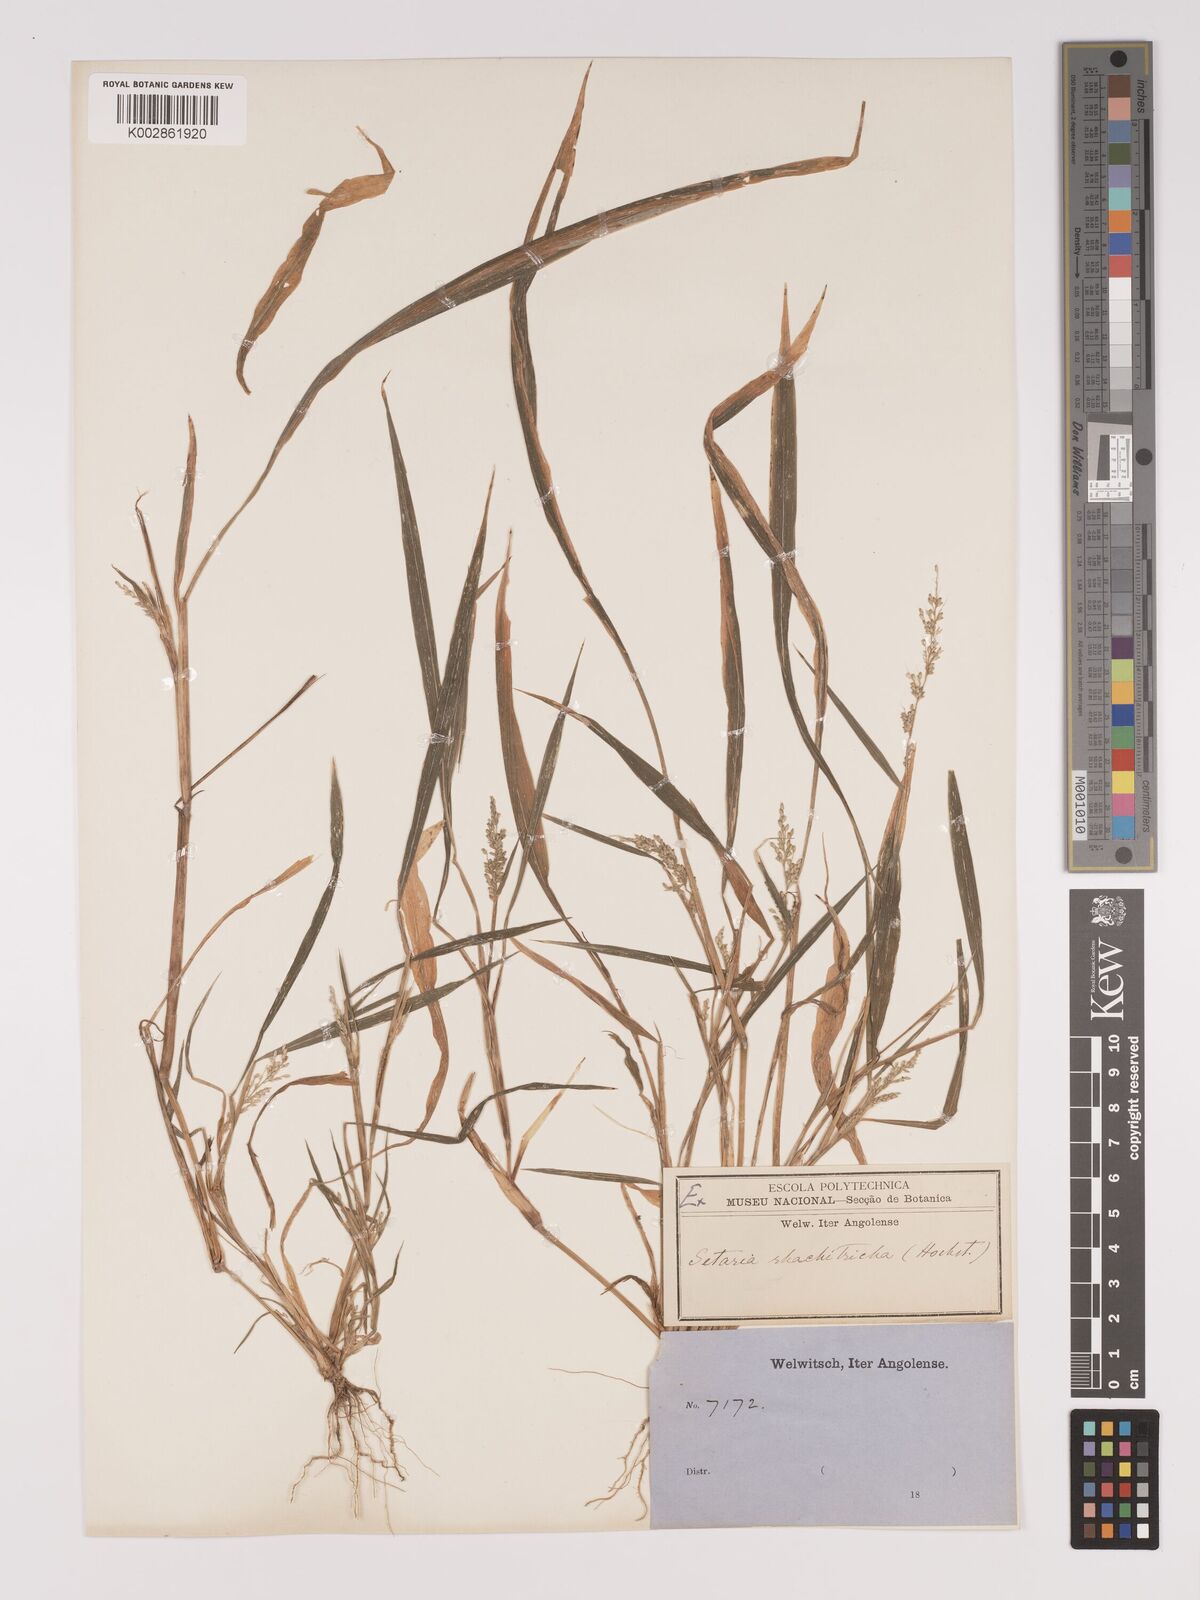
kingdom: Plantae
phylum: Tracheophyta
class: Liliopsida
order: Poales
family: Poaceae
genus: Setaria
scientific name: Setaria homonyma
